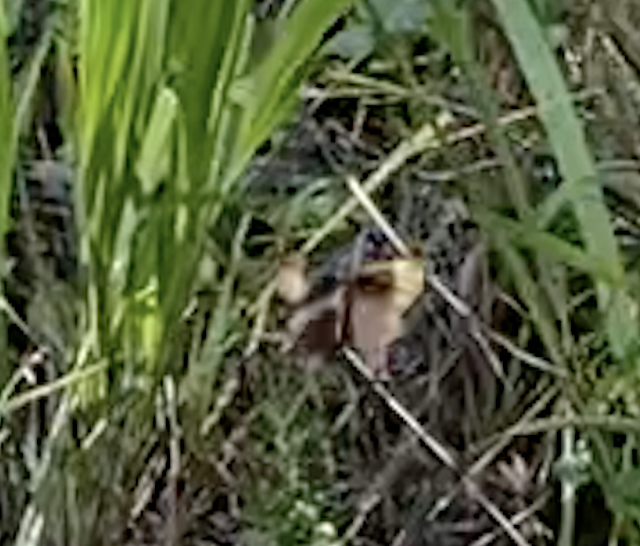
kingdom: Animalia
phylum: Arthropoda
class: Insecta
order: Lepidoptera
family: Nymphalidae
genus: Cercyonis
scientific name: Cercyonis pegala
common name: Common Wood-Nymph
